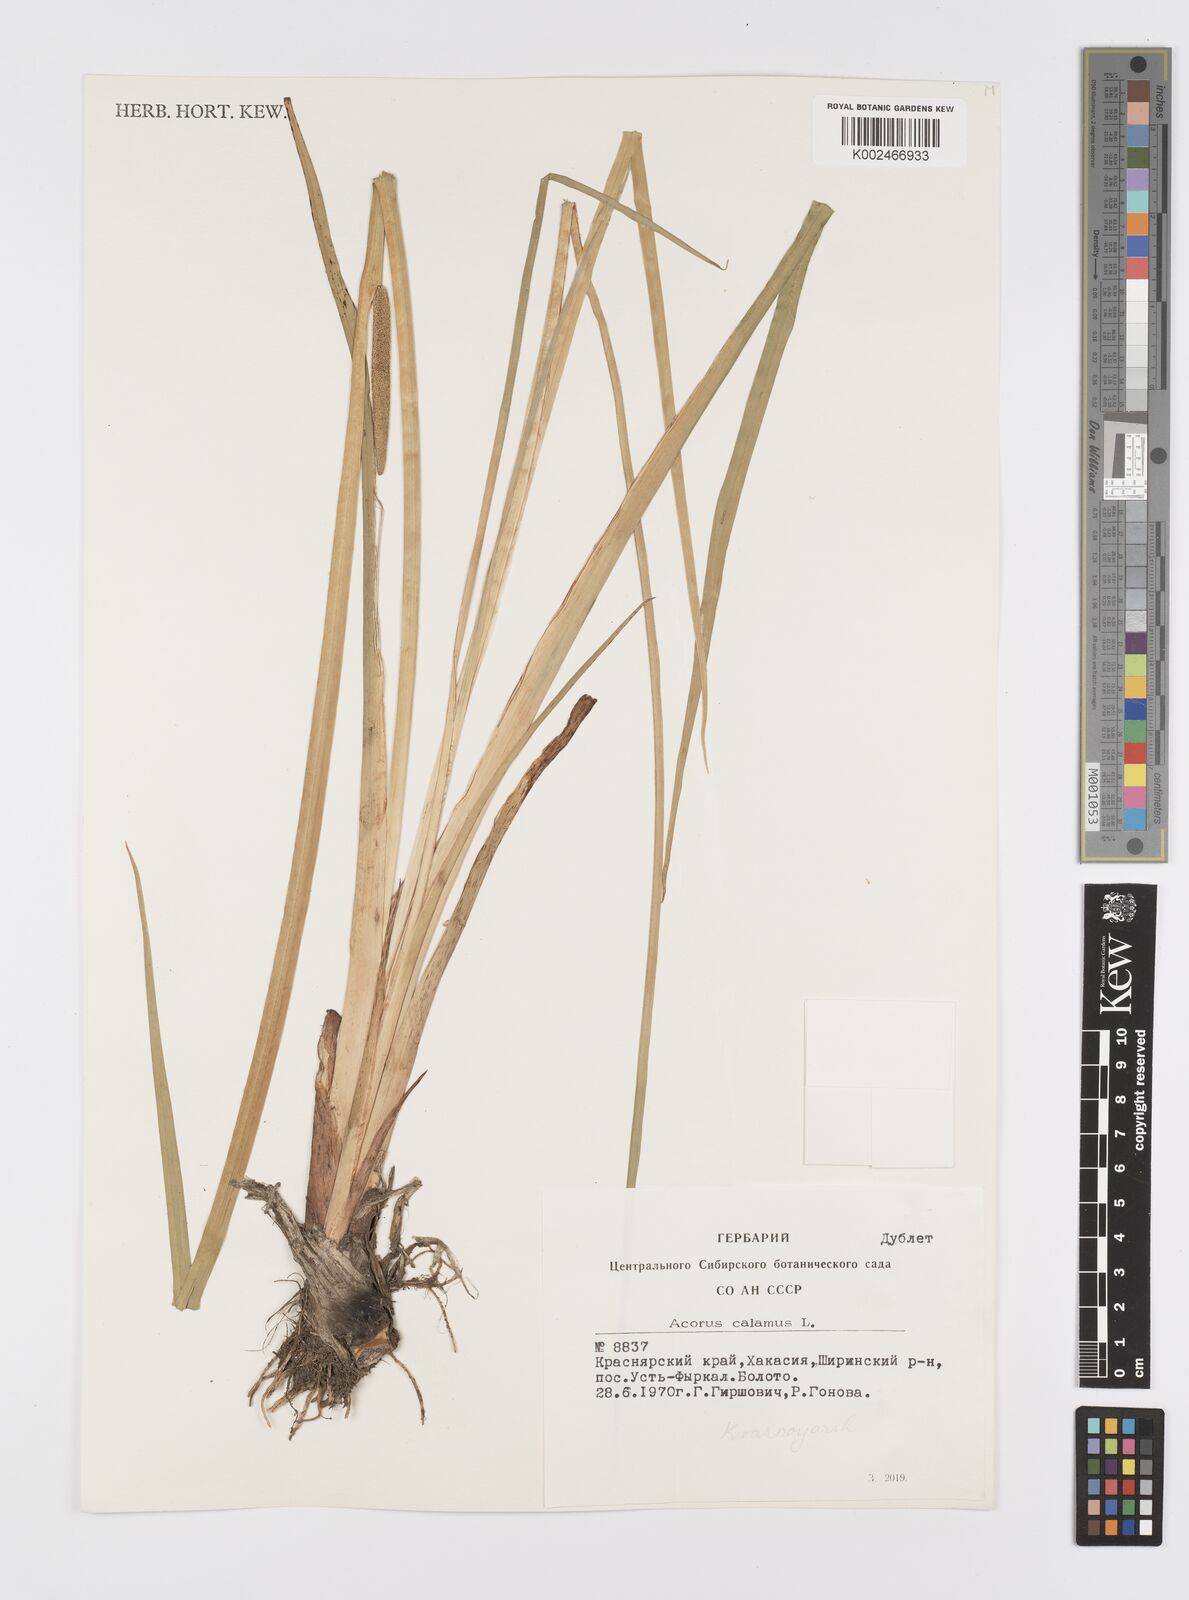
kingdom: Plantae
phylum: Tracheophyta
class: Liliopsida
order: Acorales
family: Acoraceae
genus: Acorus
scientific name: Acorus calamus
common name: Sweet-flag
